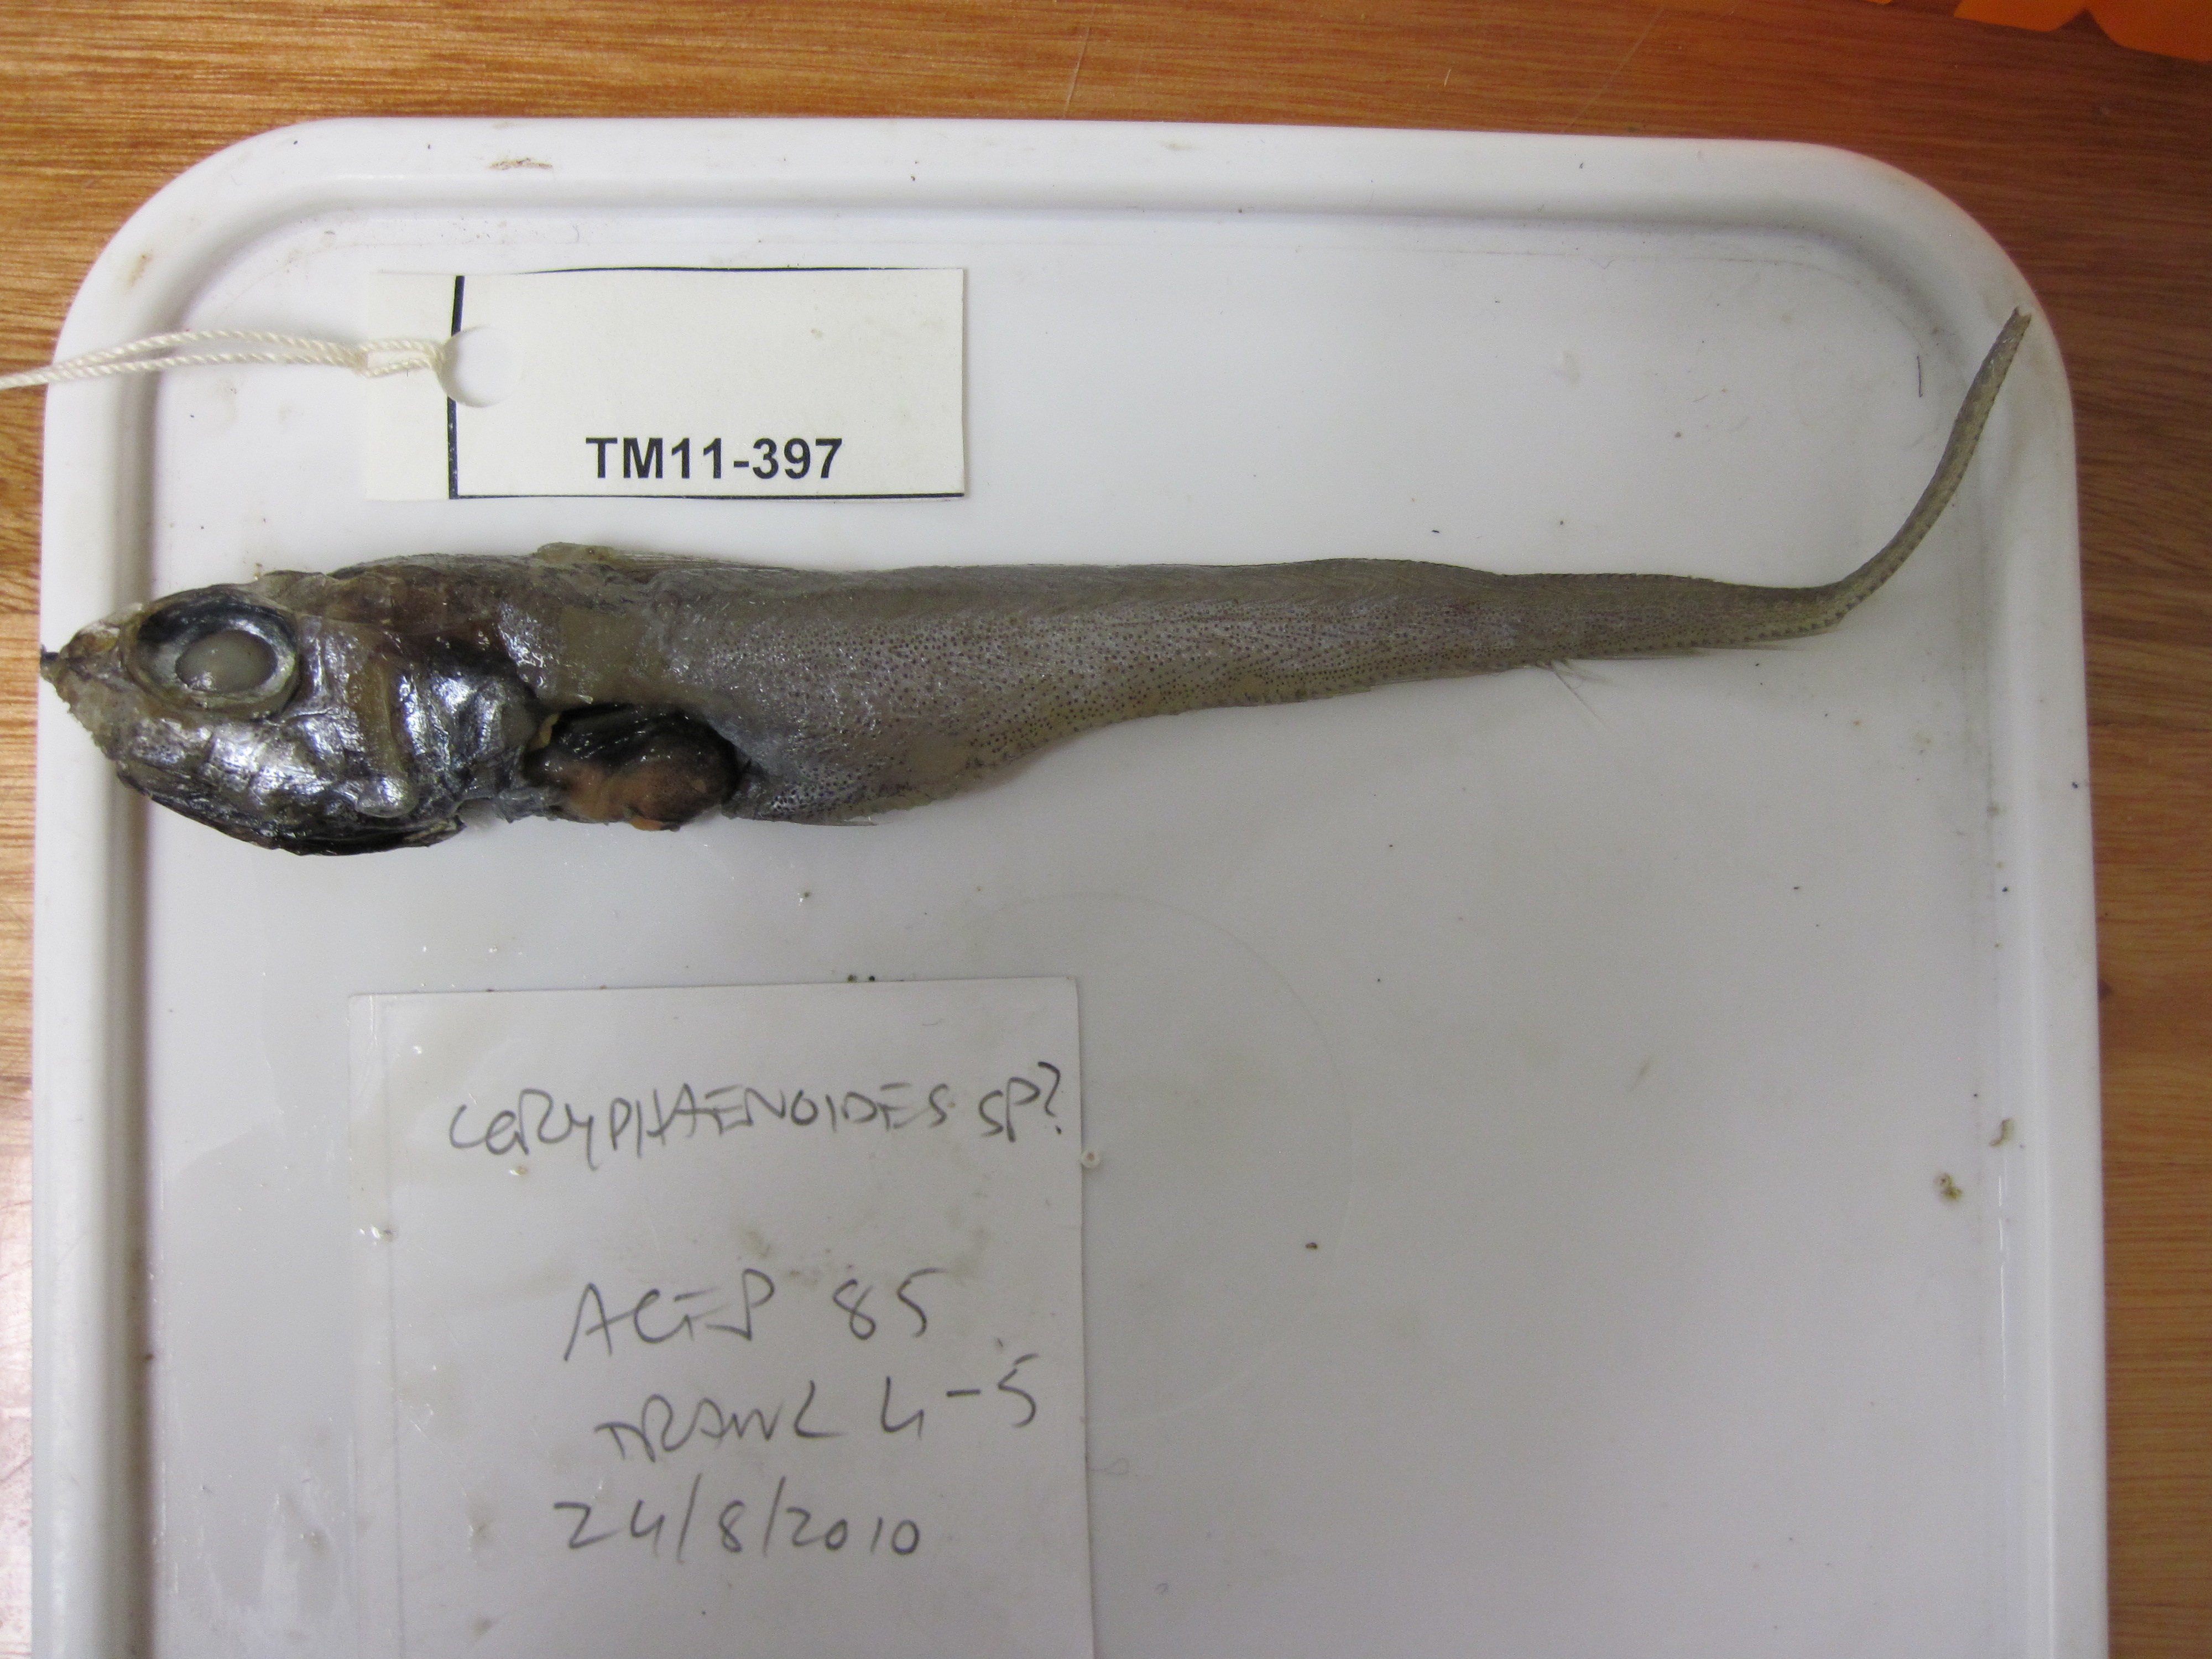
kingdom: Animalia
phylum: Chordata
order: Gadiformes
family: Macrouridae
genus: Coryphaenoides
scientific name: Coryphaenoides
